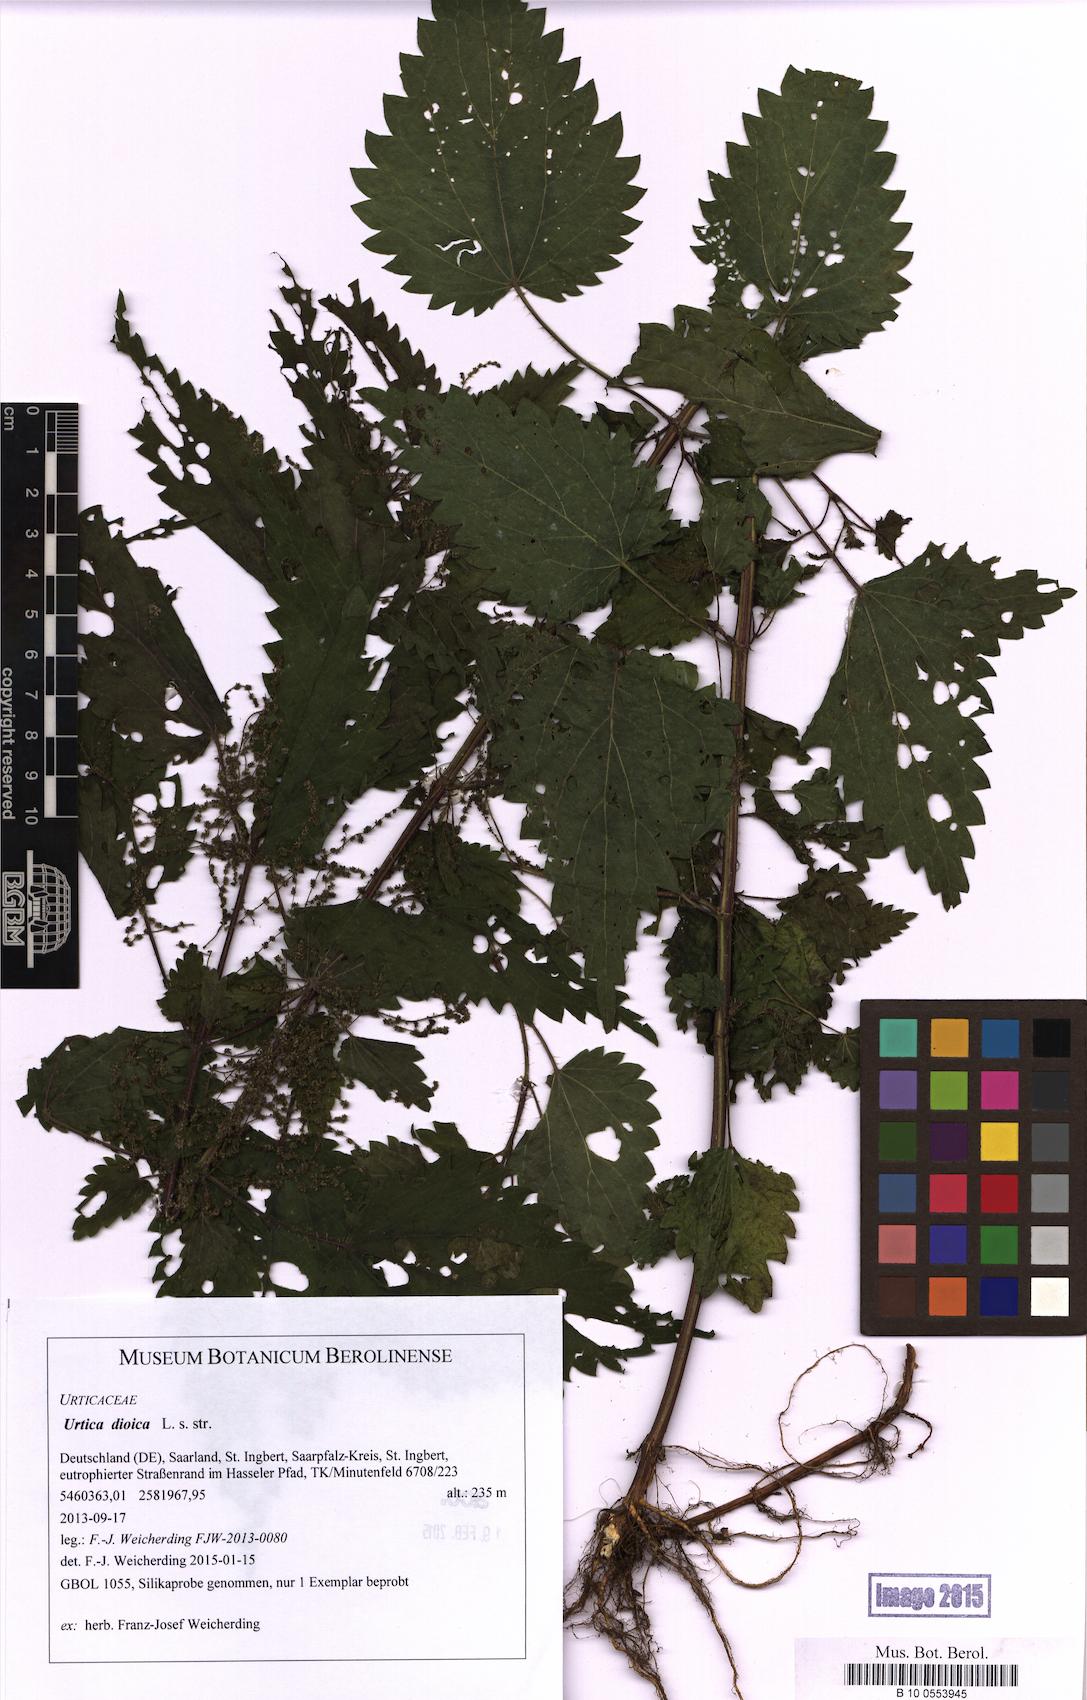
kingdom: Plantae
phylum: Tracheophyta
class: Magnoliopsida
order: Rosales
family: Urticaceae
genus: Urtica
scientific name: Urtica dioica
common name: Common nettle
